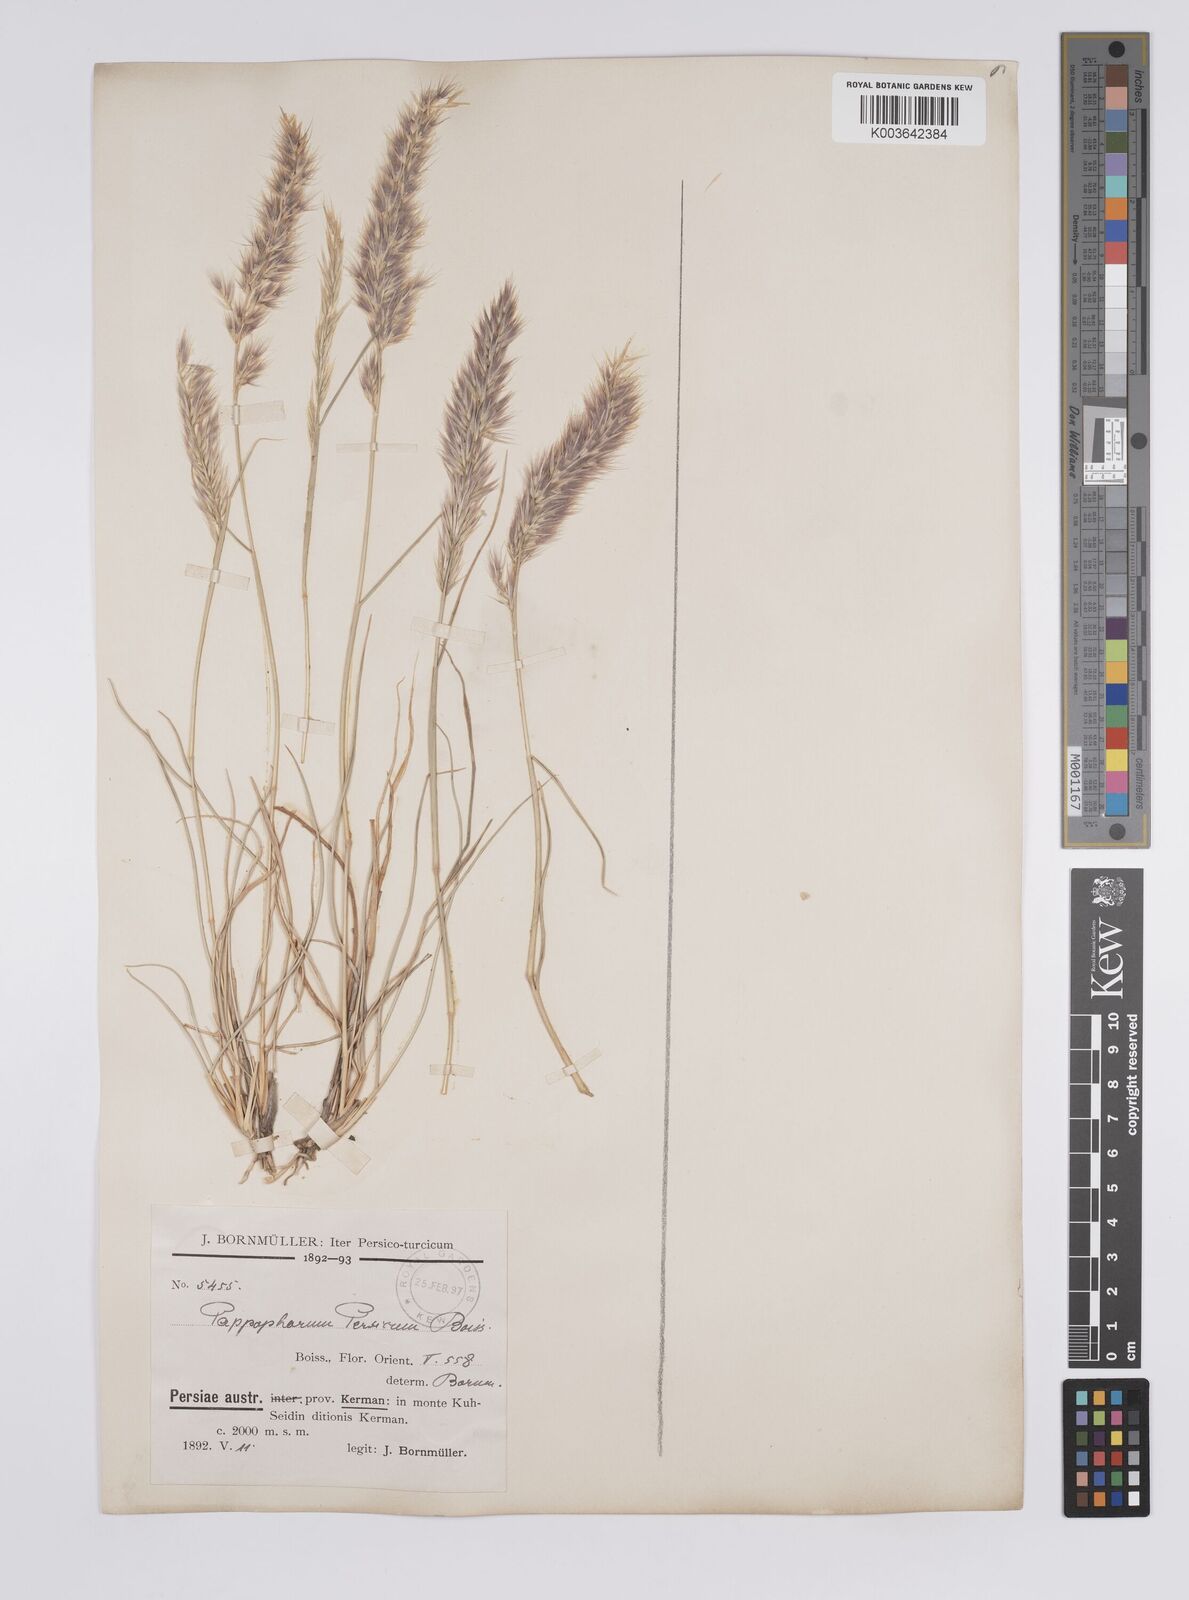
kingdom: Plantae
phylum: Tracheophyta
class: Liliopsida
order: Poales
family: Poaceae
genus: Enneapogon
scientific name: Enneapogon persicus
